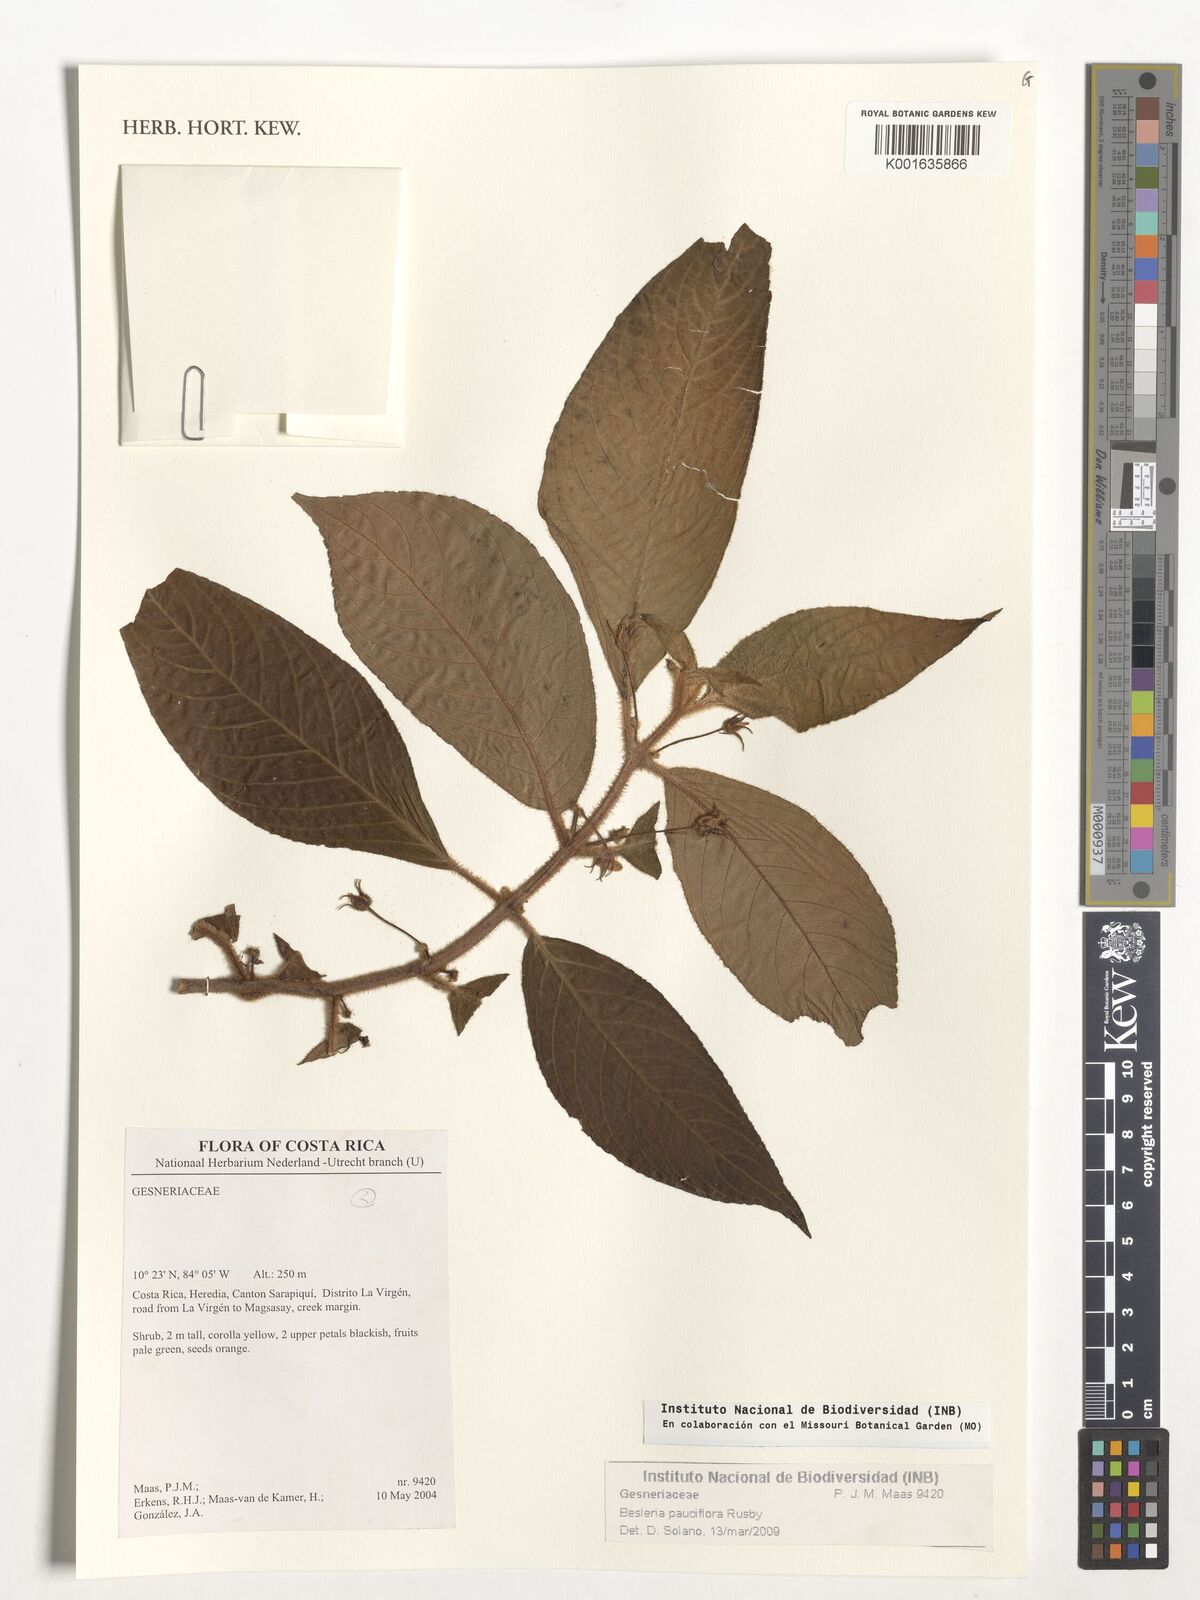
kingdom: Plantae
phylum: Tracheophyta
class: Magnoliopsida
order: Lamiales
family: Gesneriaceae
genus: Besleria
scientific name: Besleria pauciflora
